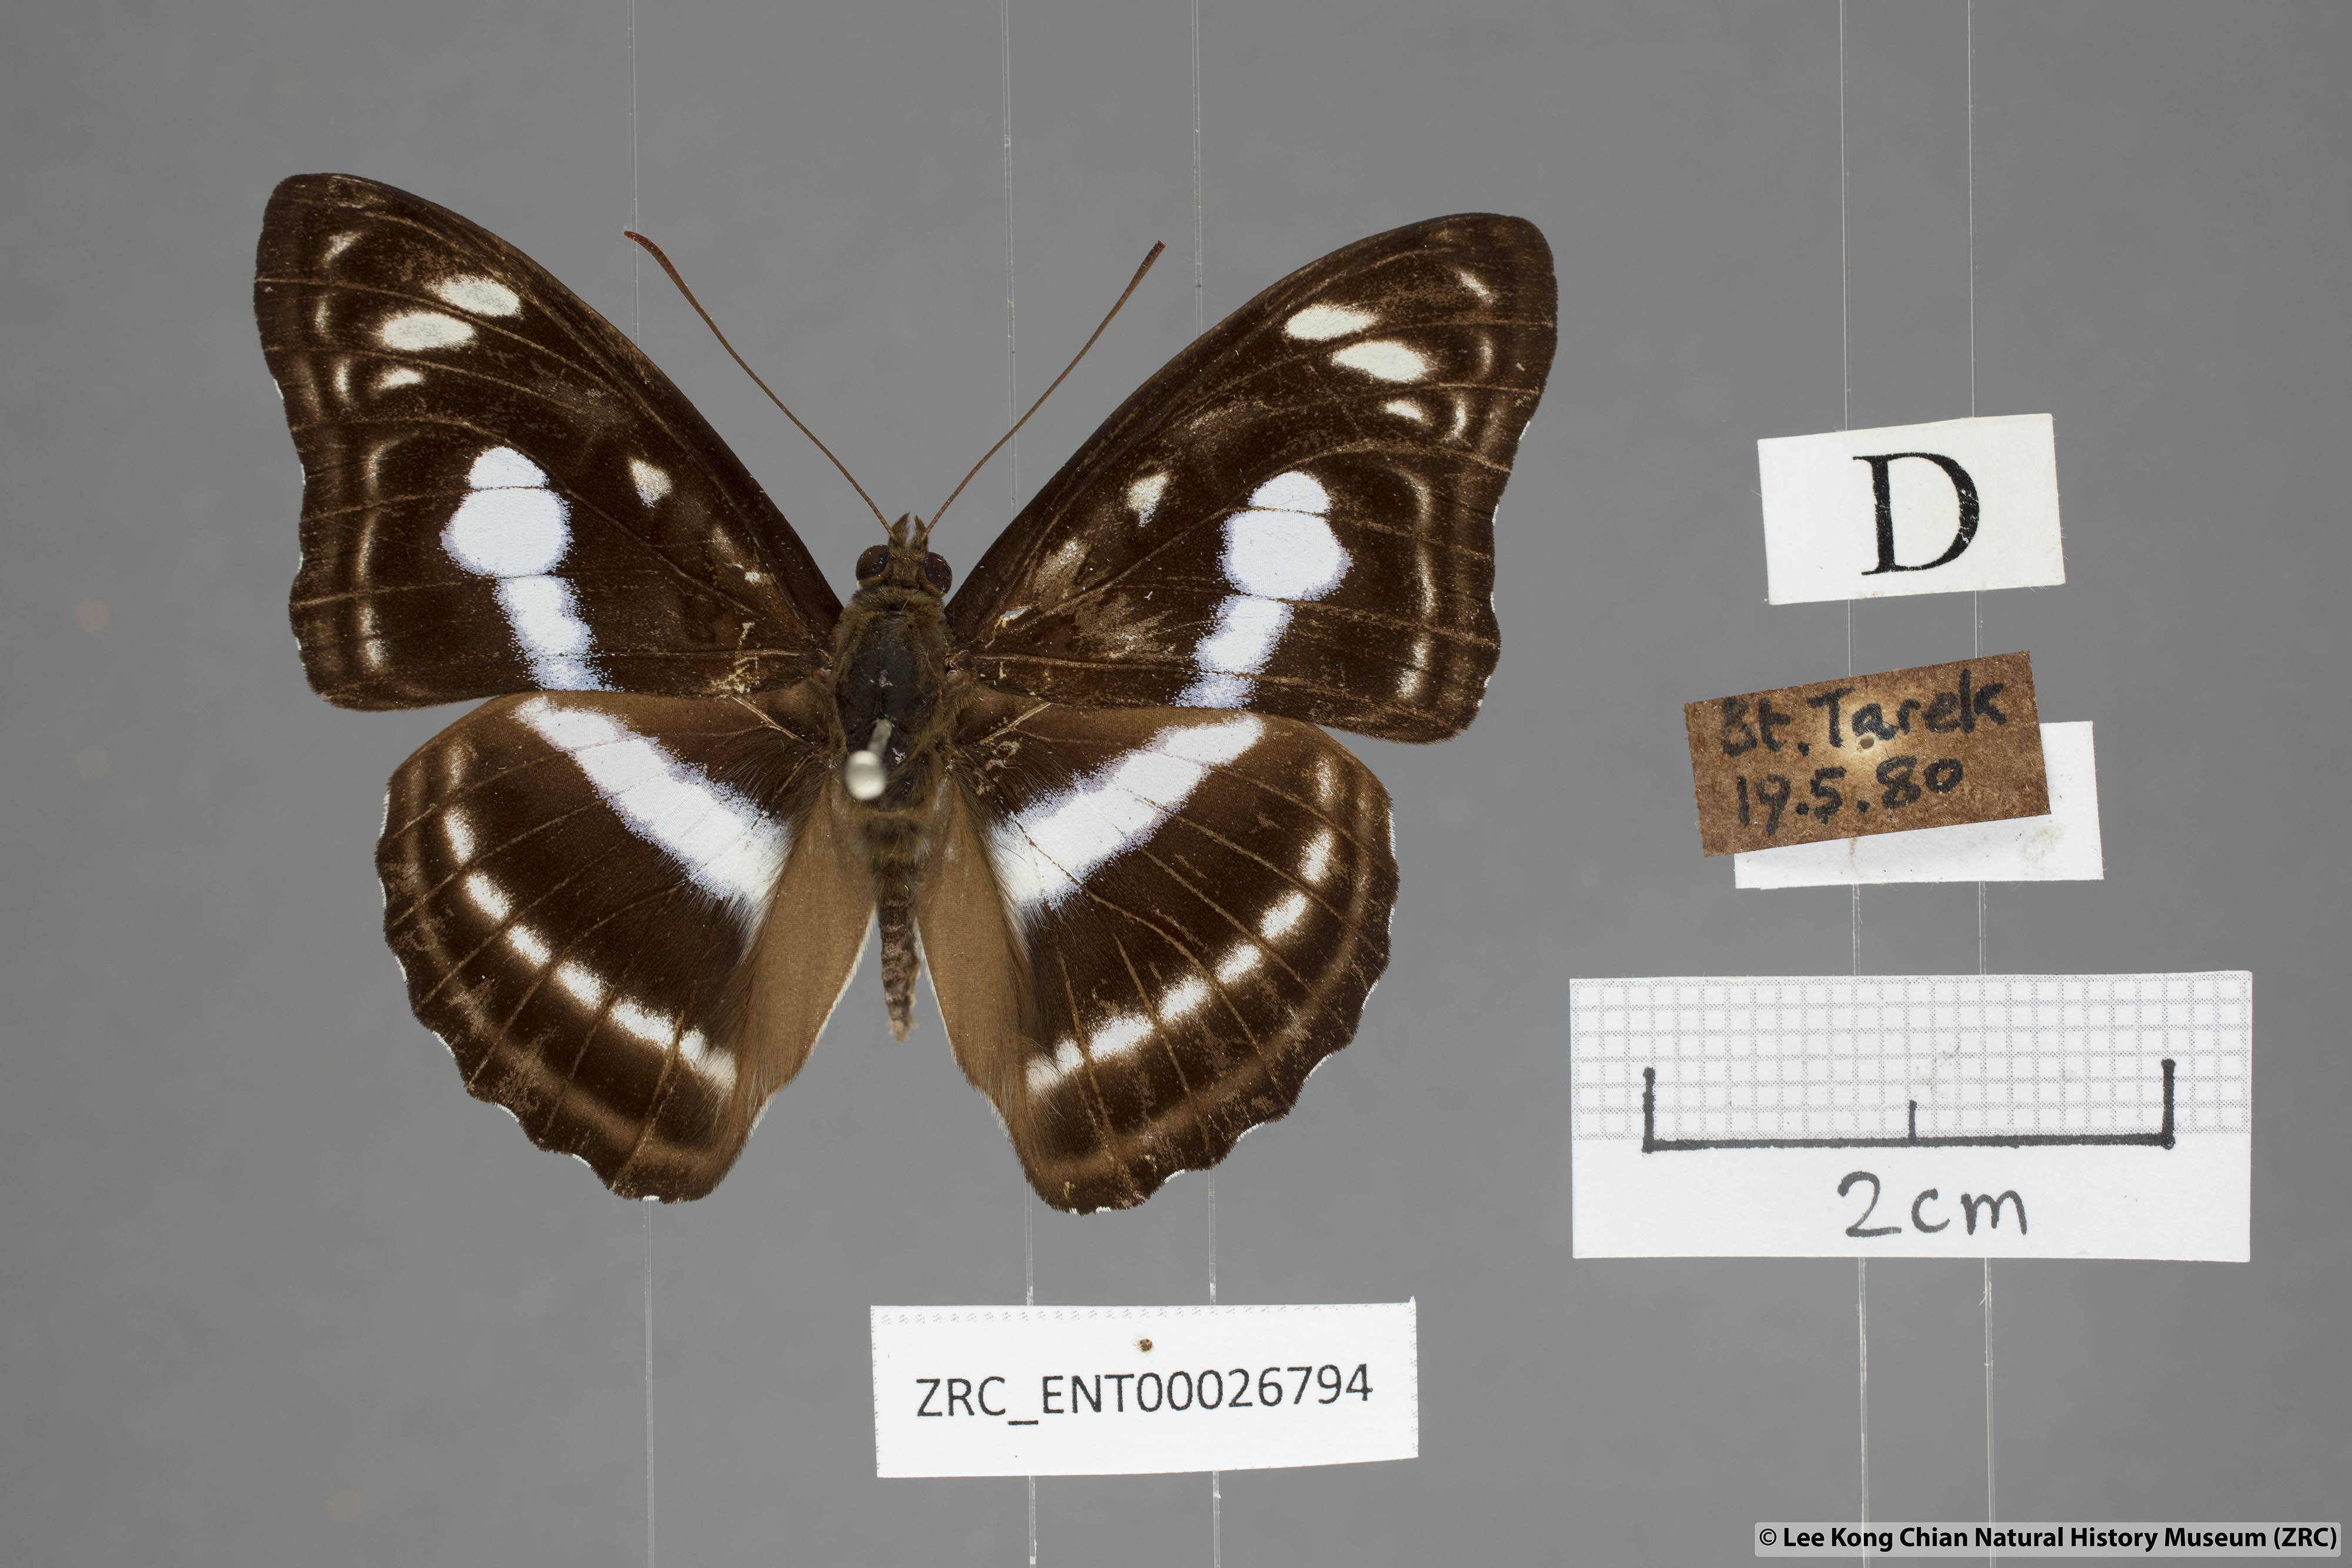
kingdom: Animalia
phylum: Arthropoda
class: Insecta
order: Lepidoptera
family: Nymphalidae
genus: Parathyma
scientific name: Parathyma selenophora
